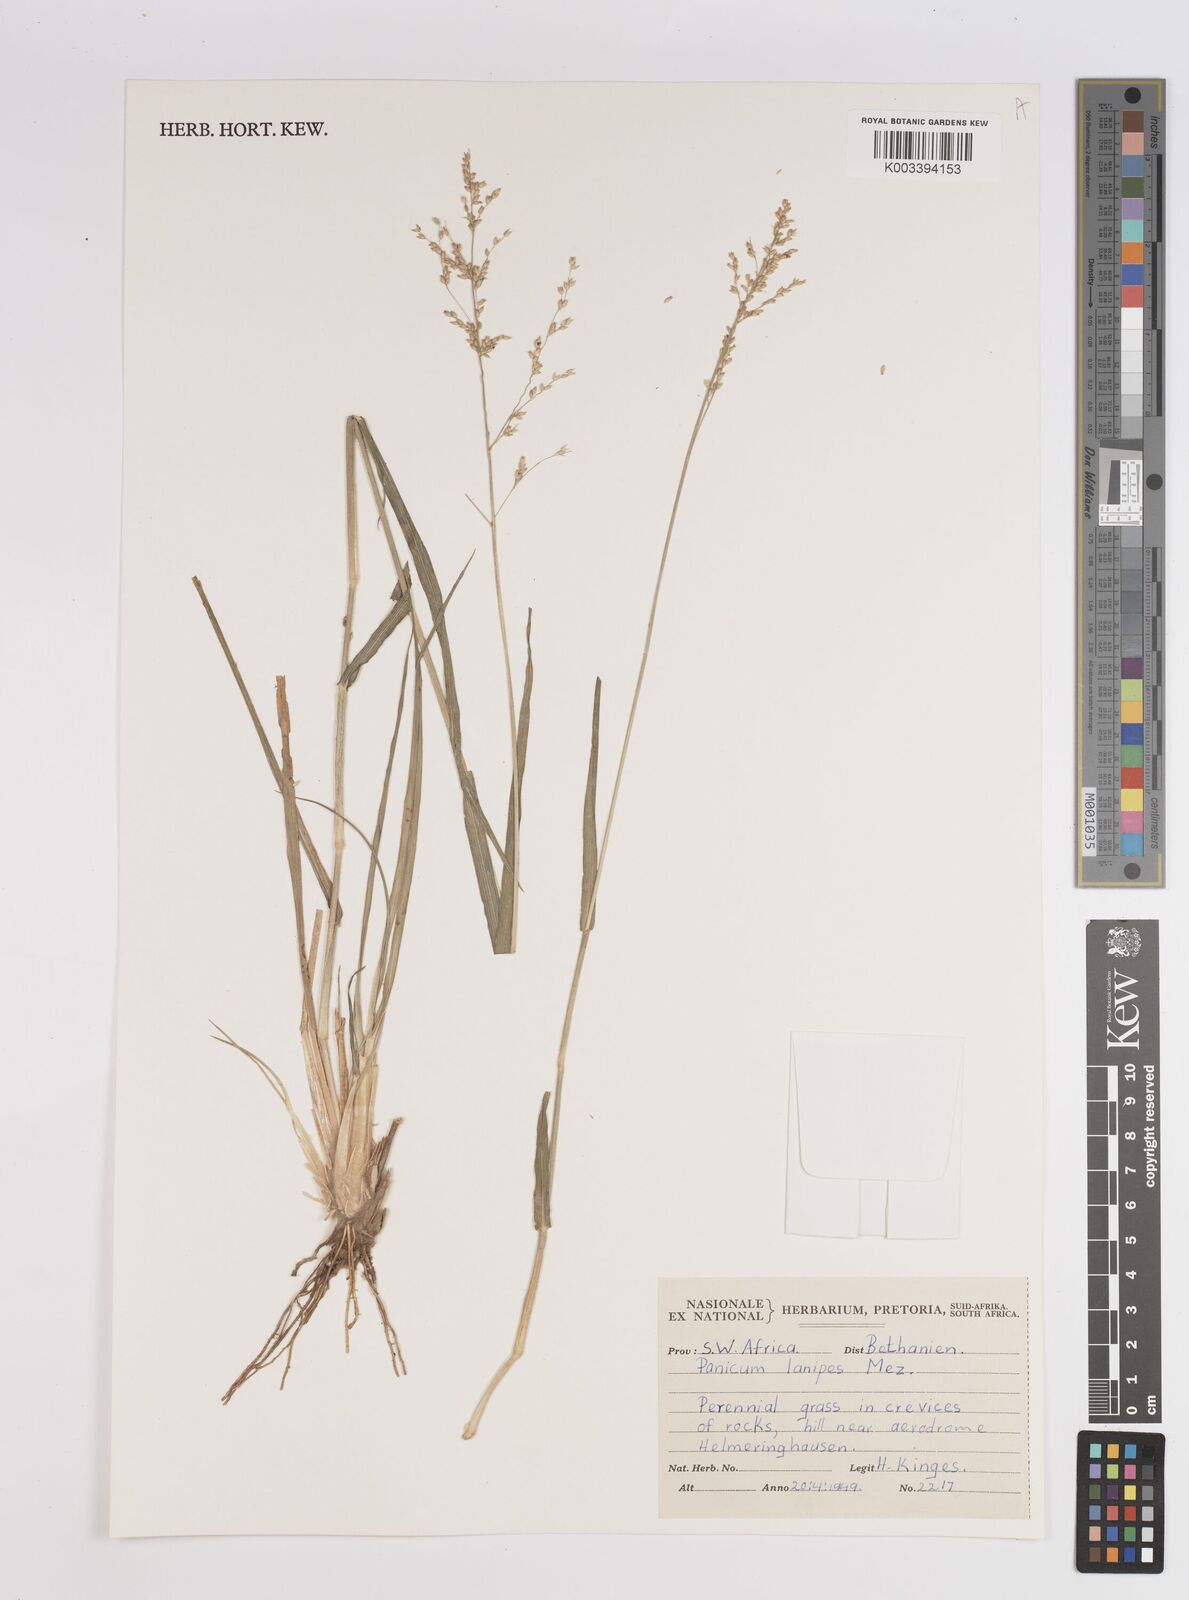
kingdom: Plantae
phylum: Tracheophyta
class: Liliopsida
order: Poales
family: Poaceae
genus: Panicum
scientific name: Panicum lanipes
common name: Wolvoet panicum
